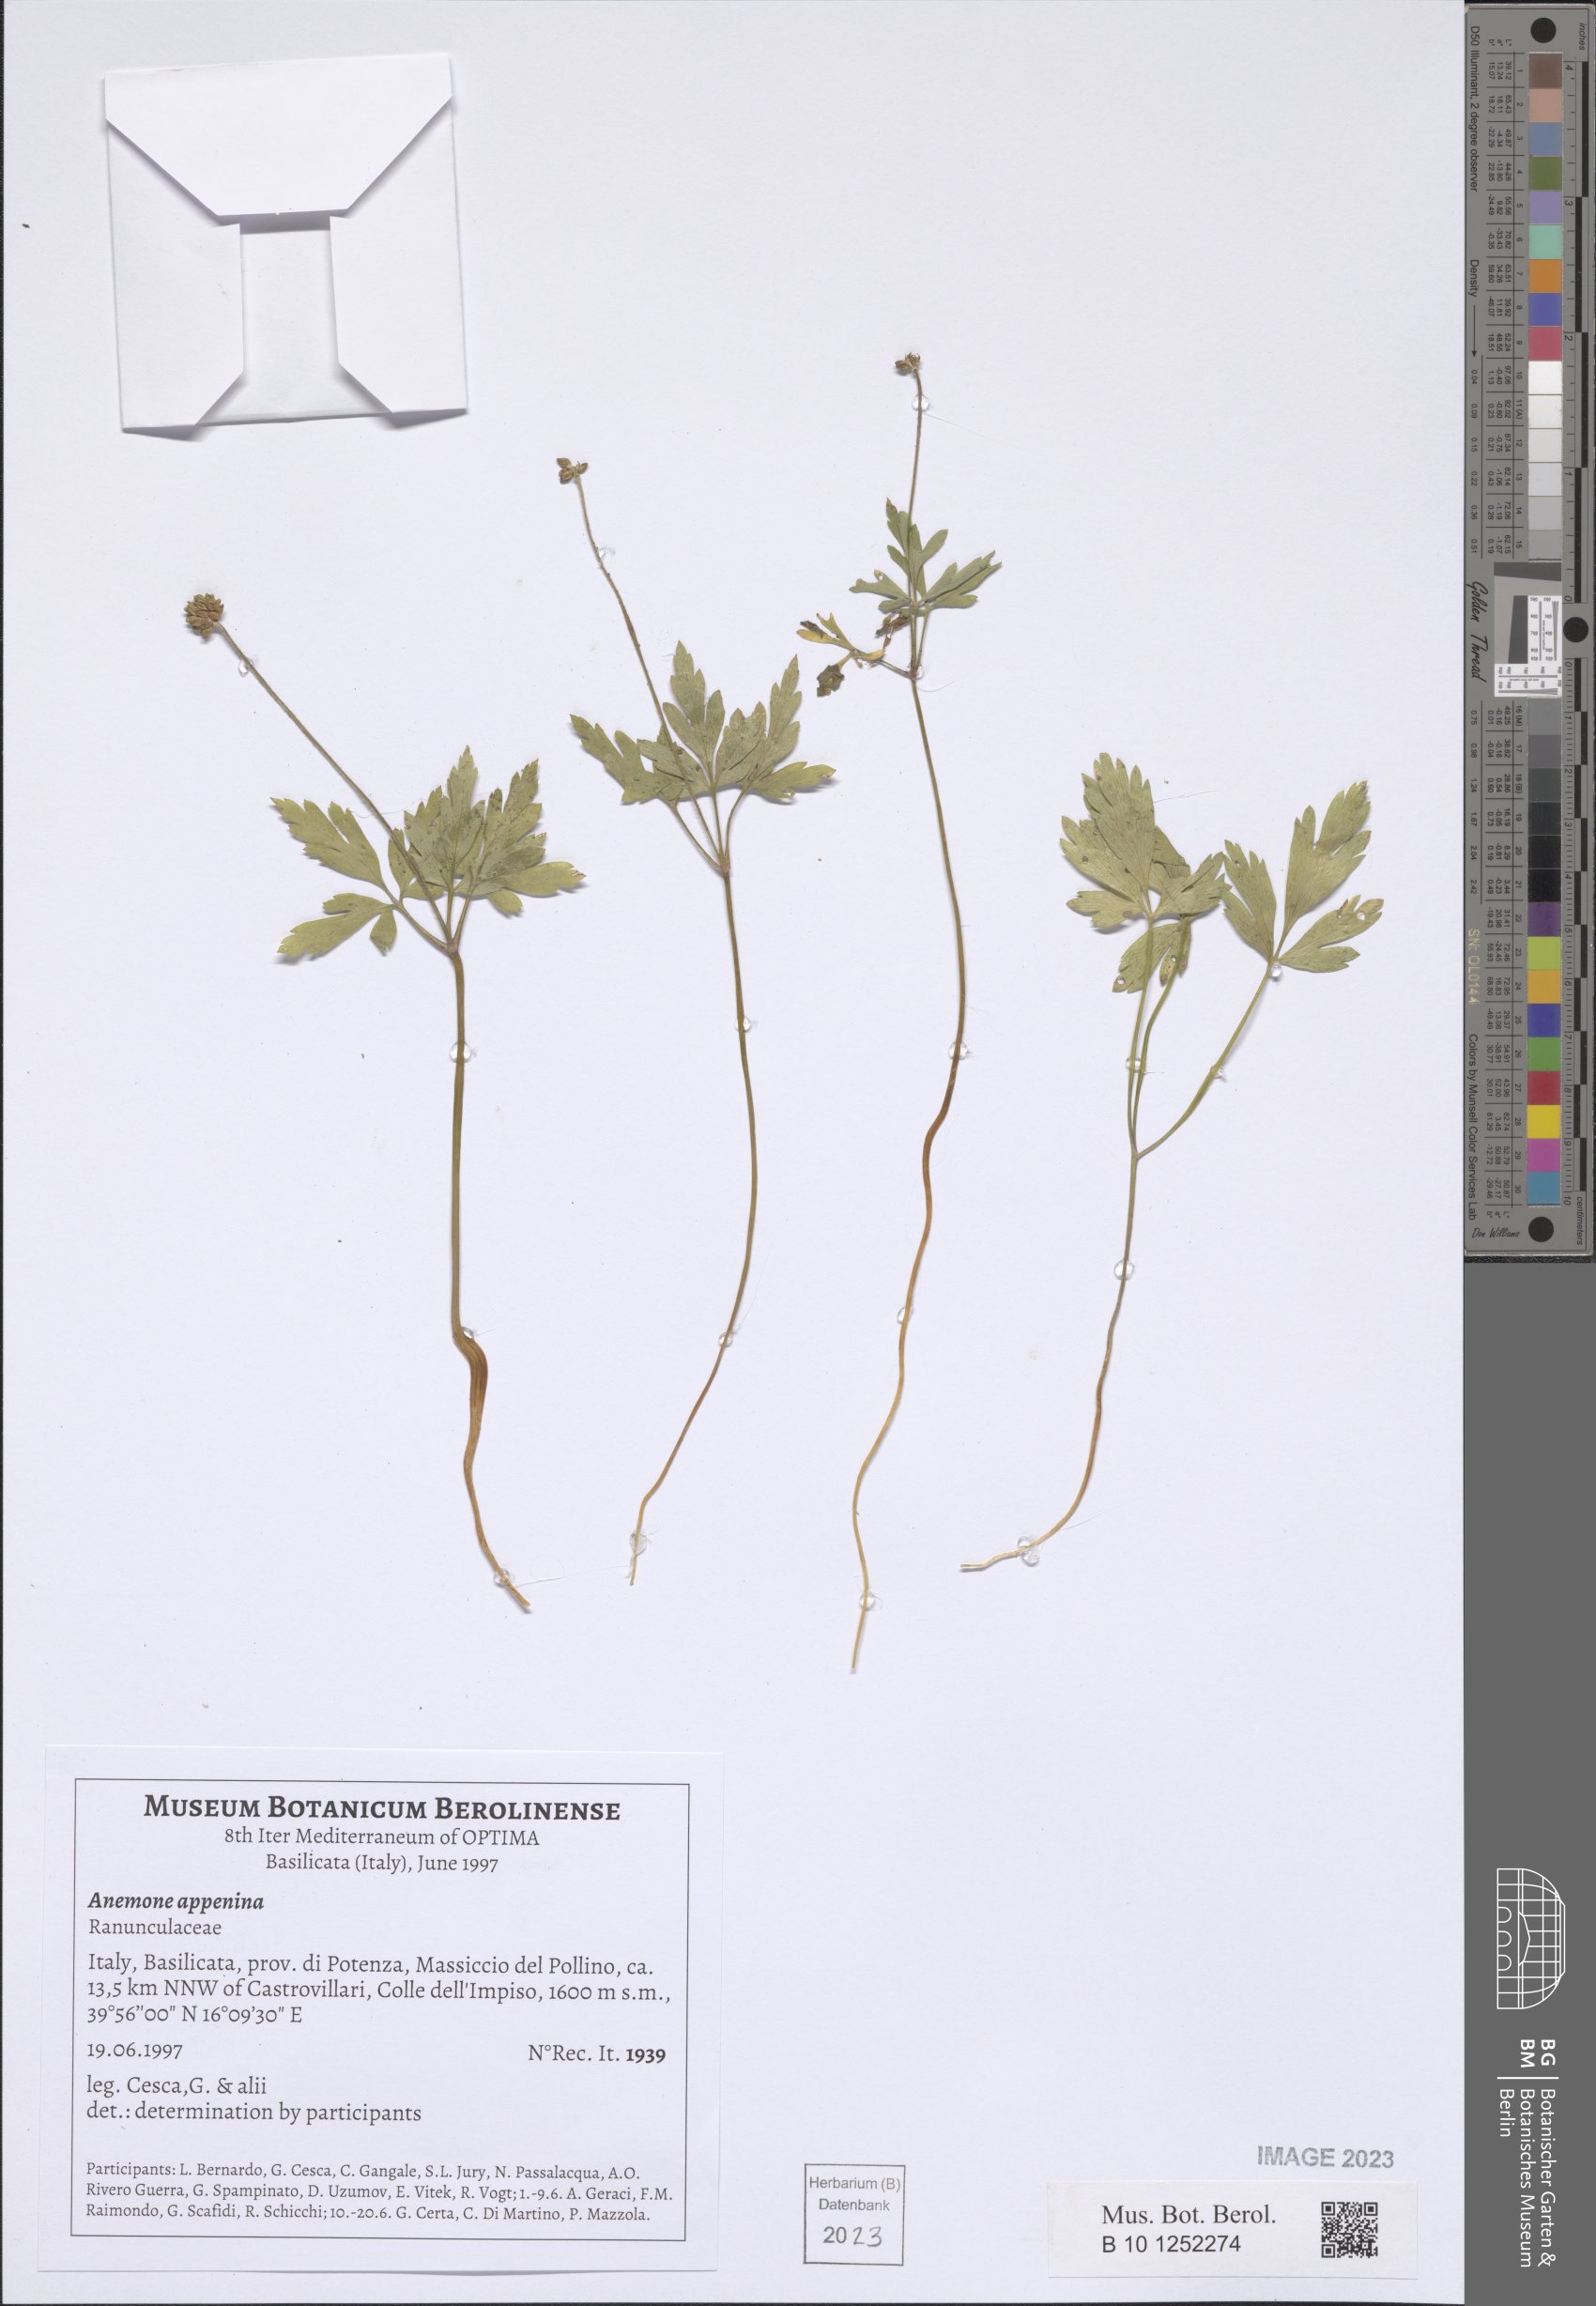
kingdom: Plantae
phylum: Tracheophyta
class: Magnoliopsida
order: Ranunculales
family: Ranunculaceae
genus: Anemone
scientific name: Anemone apennina
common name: Blue anemone
